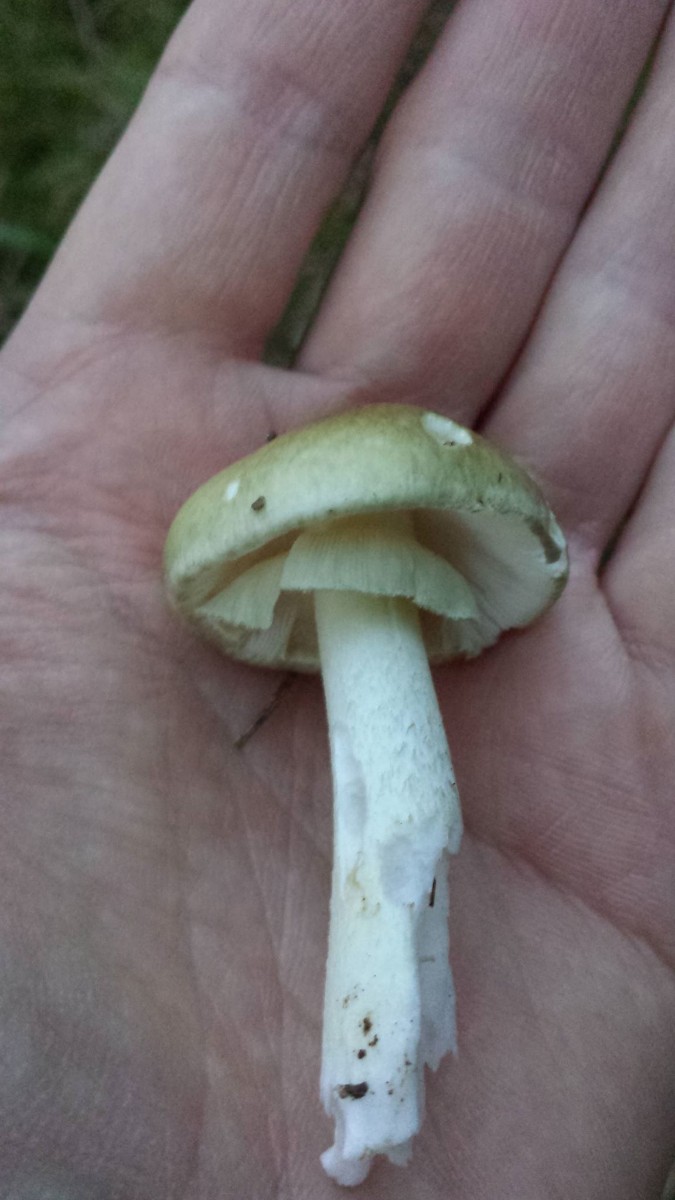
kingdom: Fungi
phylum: Basidiomycota
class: Agaricomycetes
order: Agaricales
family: Amanitaceae
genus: Amanita
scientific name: Amanita phalloides
